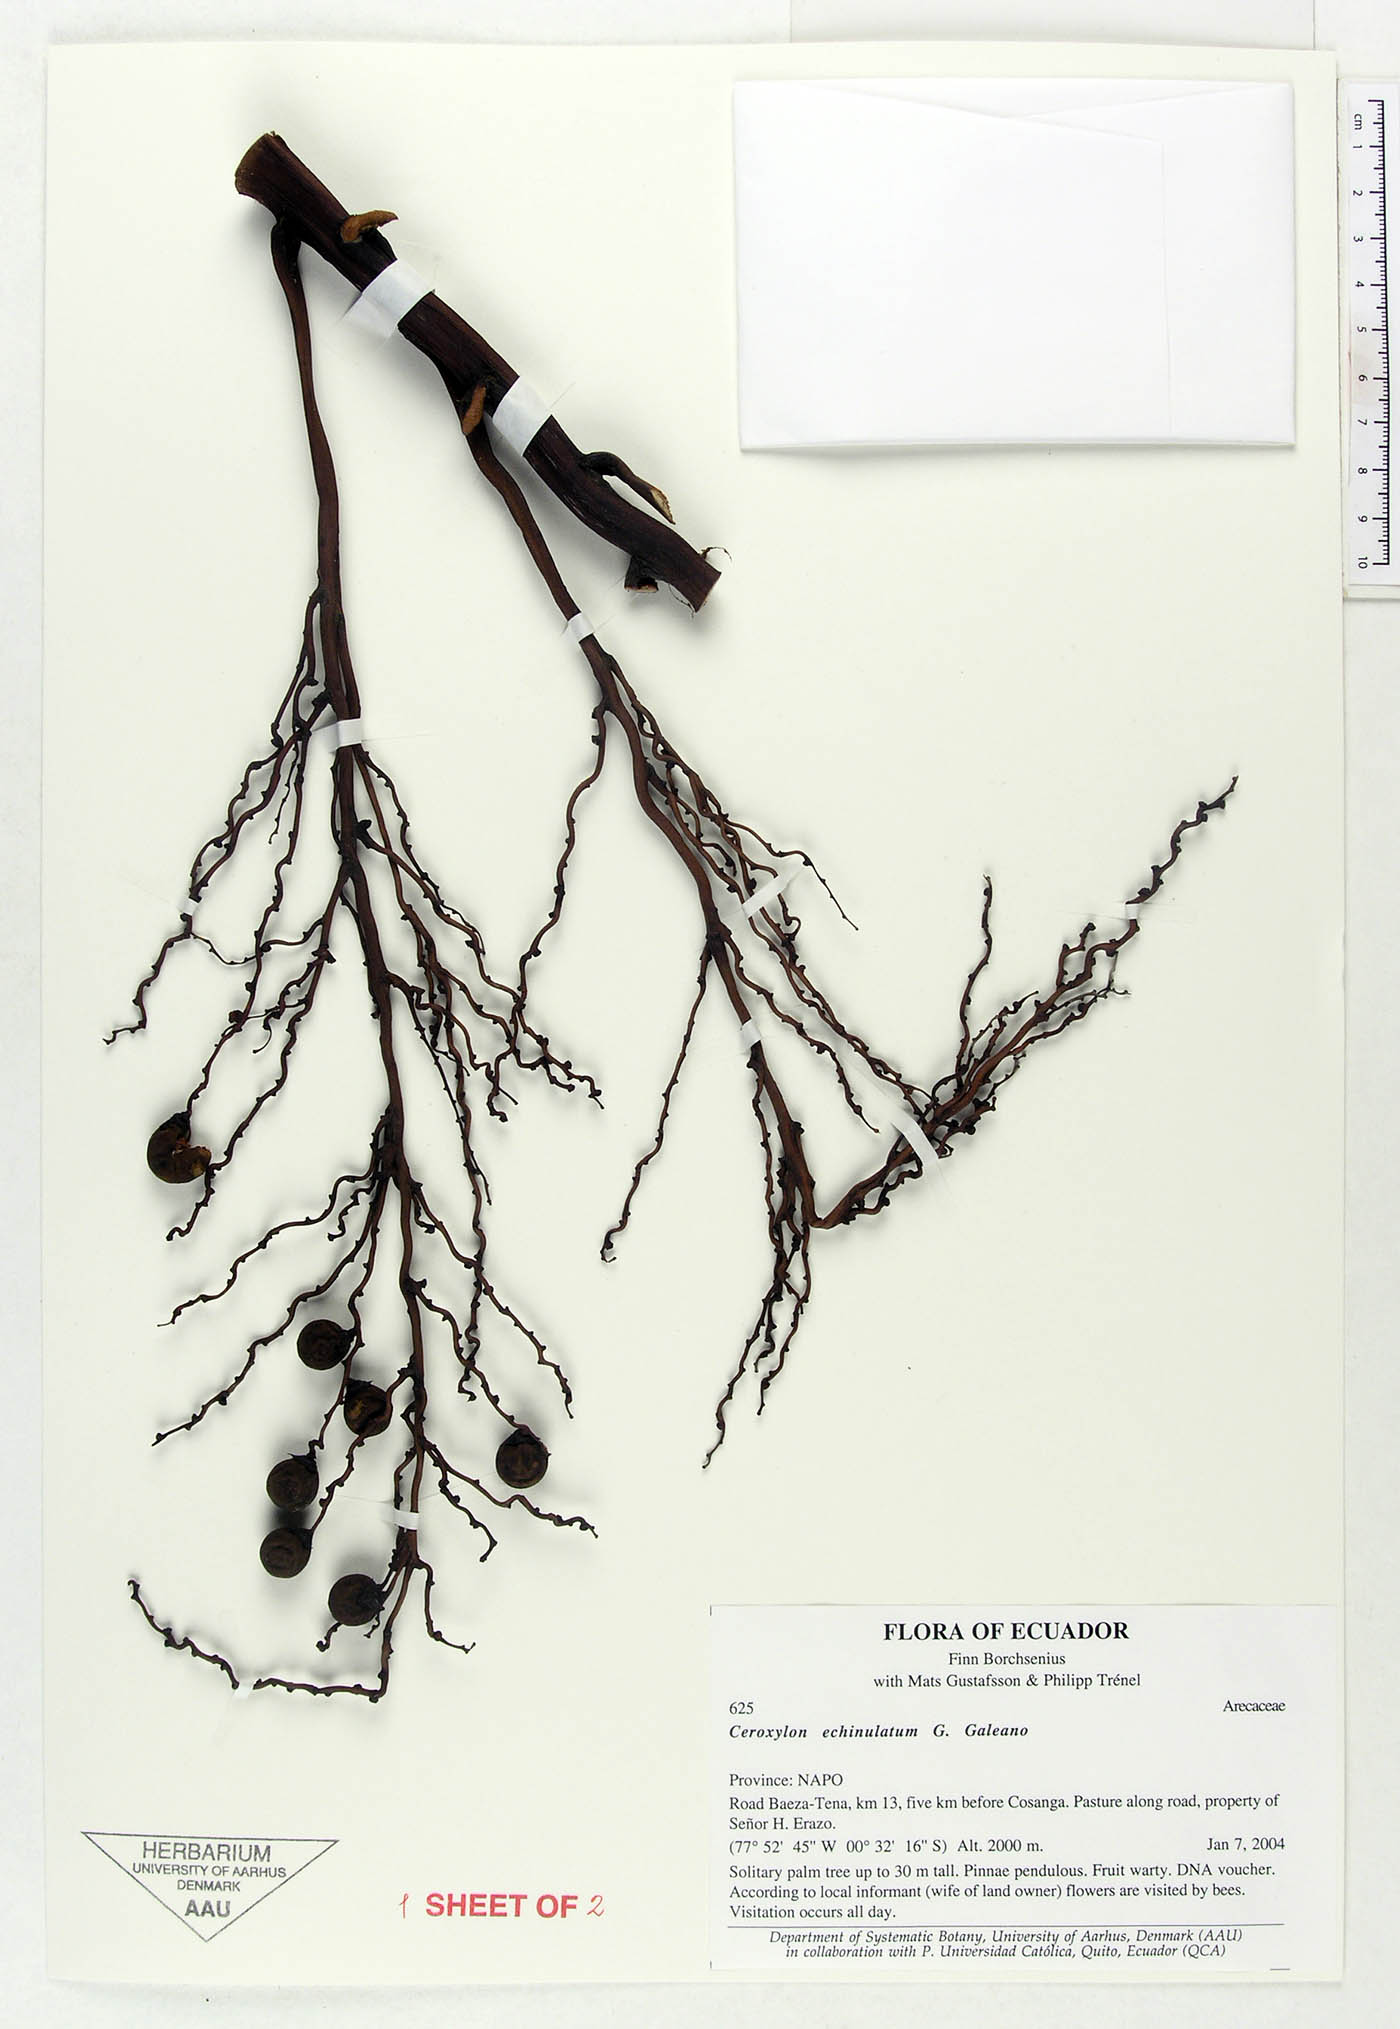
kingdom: Plantae
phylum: Tracheophyta
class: Liliopsida
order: Arecales
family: Arecaceae
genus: Ceroxylon
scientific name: Ceroxylon echinulatum
